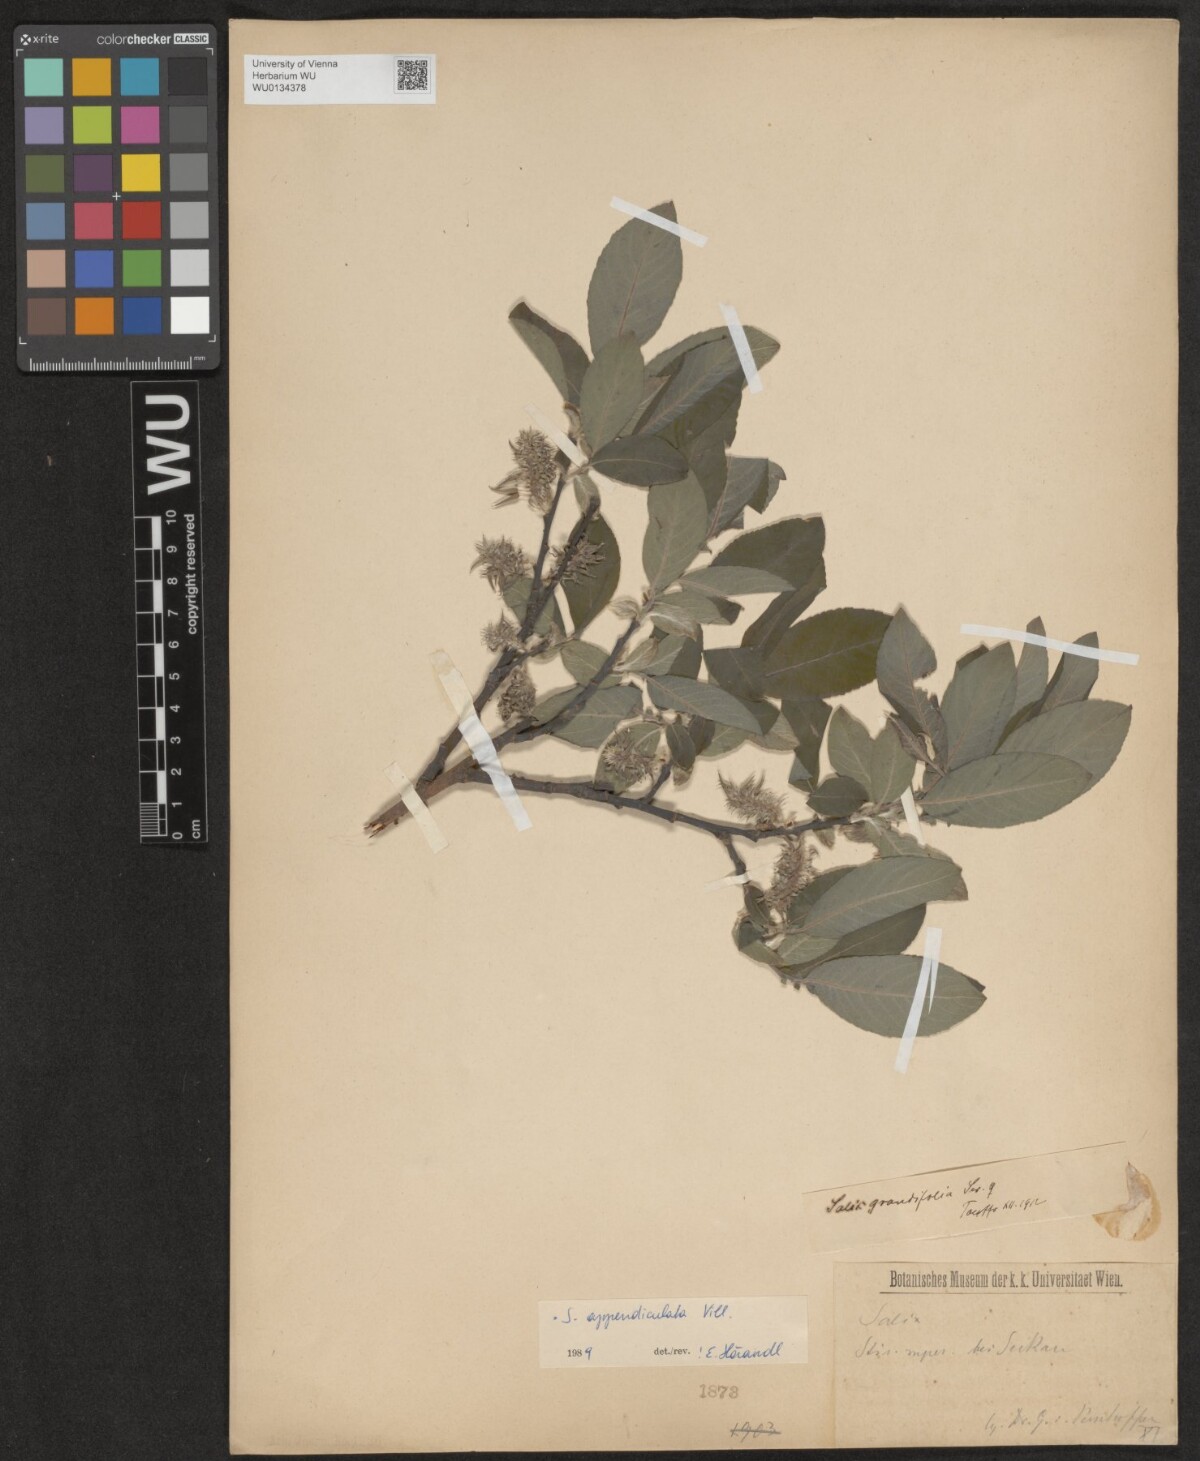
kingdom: Plantae
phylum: Tracheophyta
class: Magnoliopsida
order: Malpighiales
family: Salicaceae
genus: Salix
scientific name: Salix appendiculata
